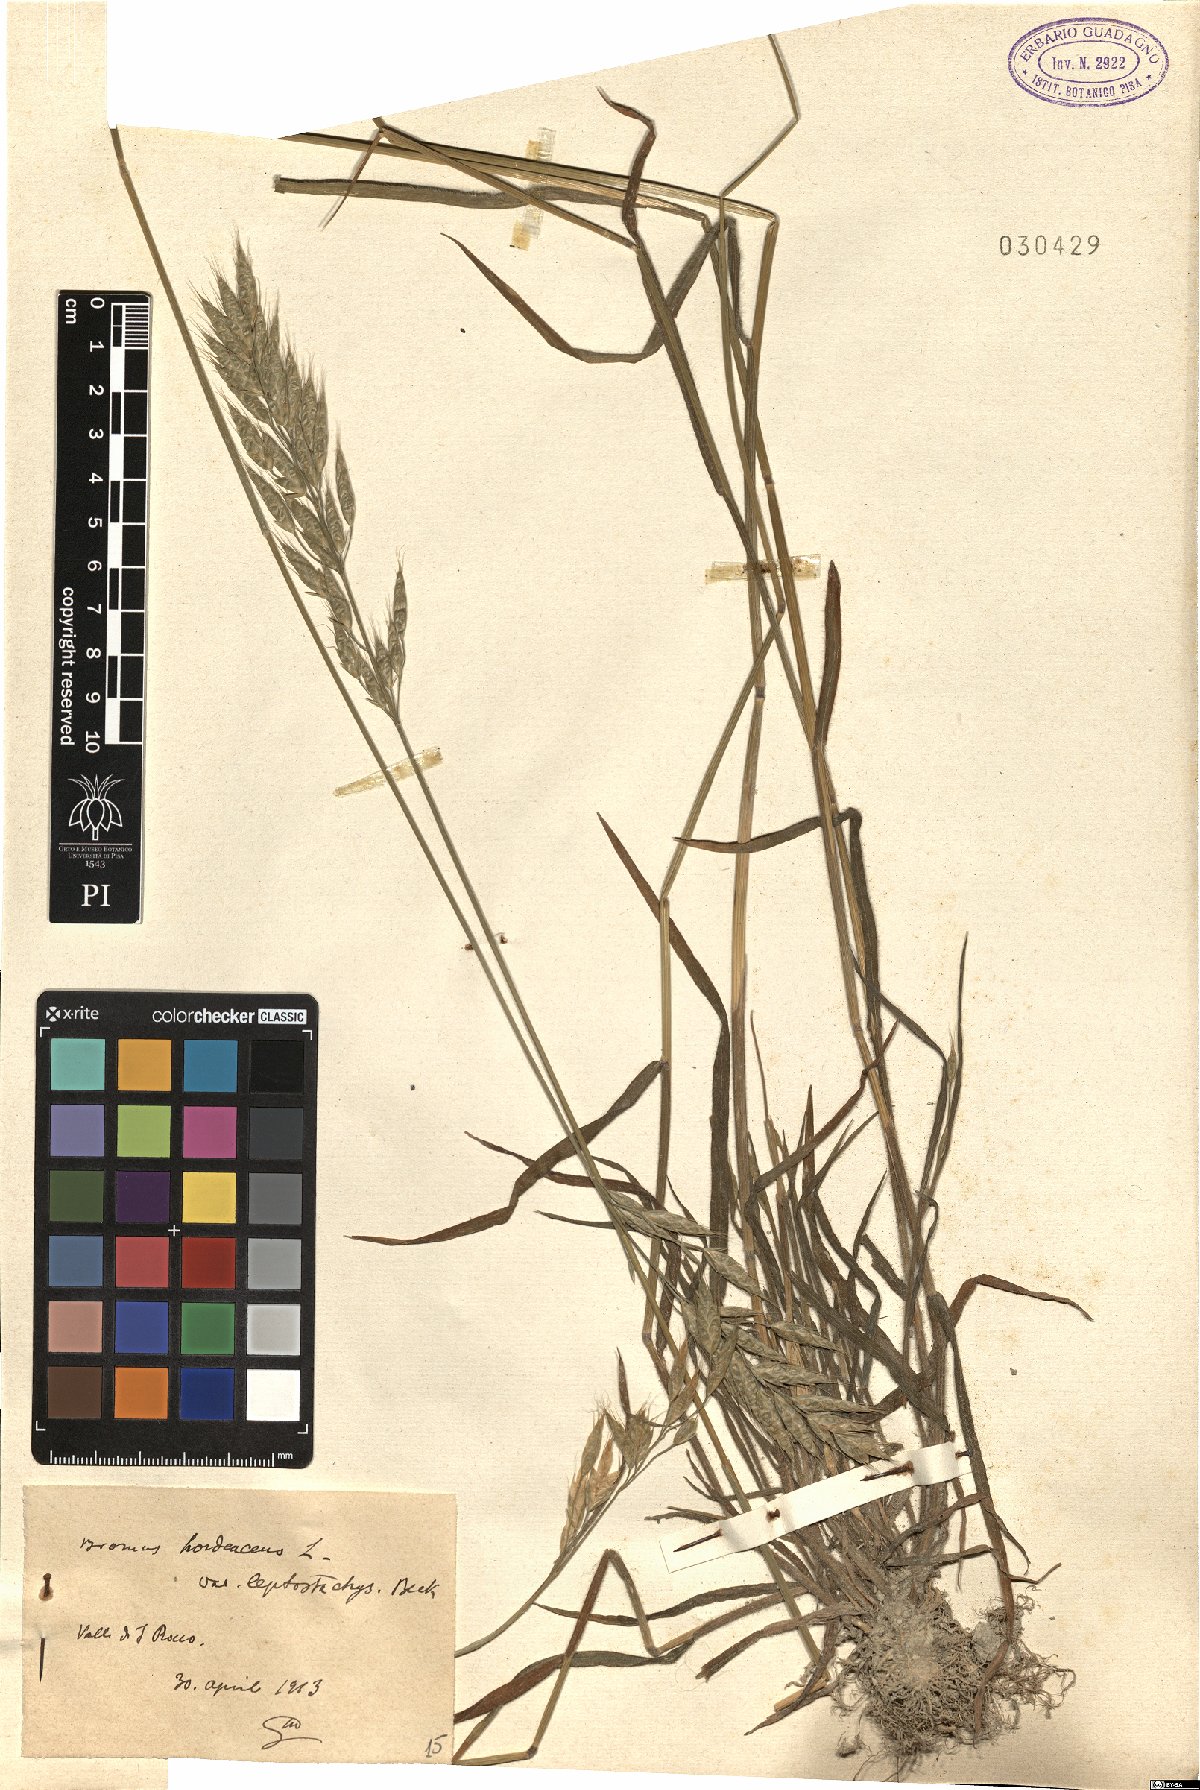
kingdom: Plantae
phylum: Tracheophyta
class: Liliopsida
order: Poales
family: Poaceae
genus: Bromus
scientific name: Bromus racemosus
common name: Bald brome
